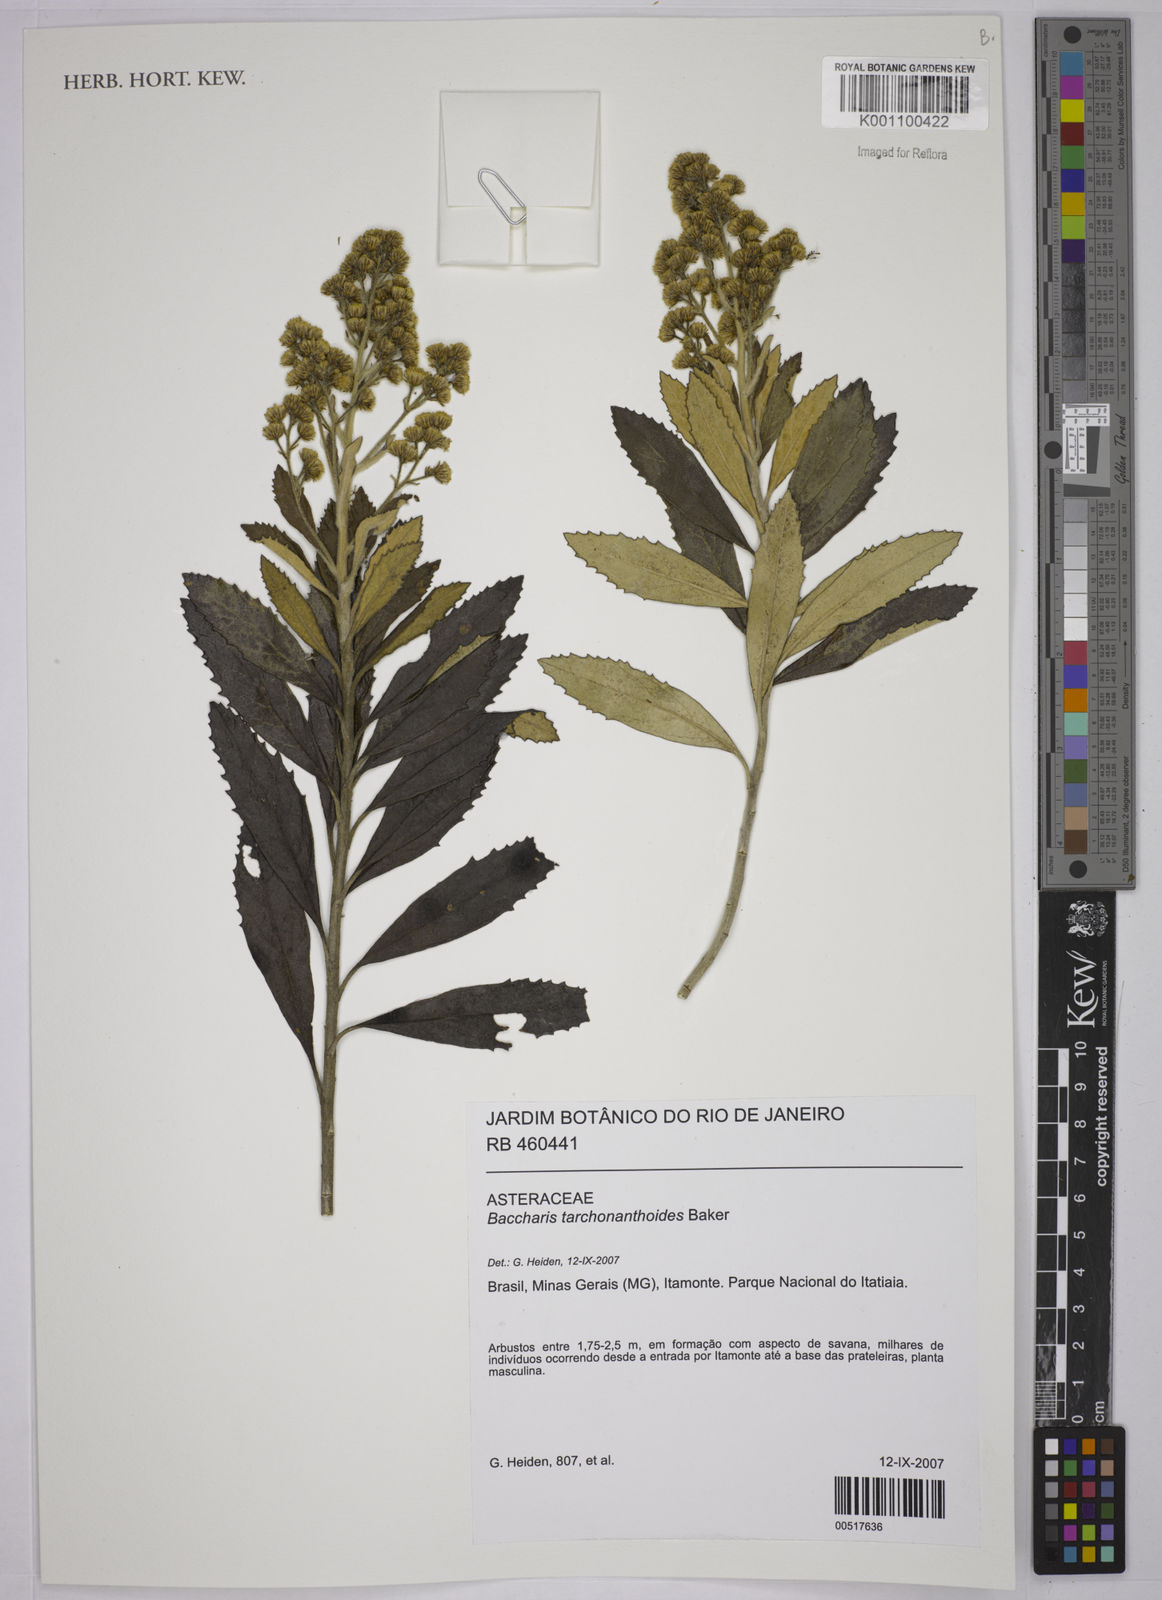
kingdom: Plantae
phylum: Tracheophyta
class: Magnoliopsida
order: Asterales
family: Asteraceae
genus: Baccharis
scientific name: Baccharis
